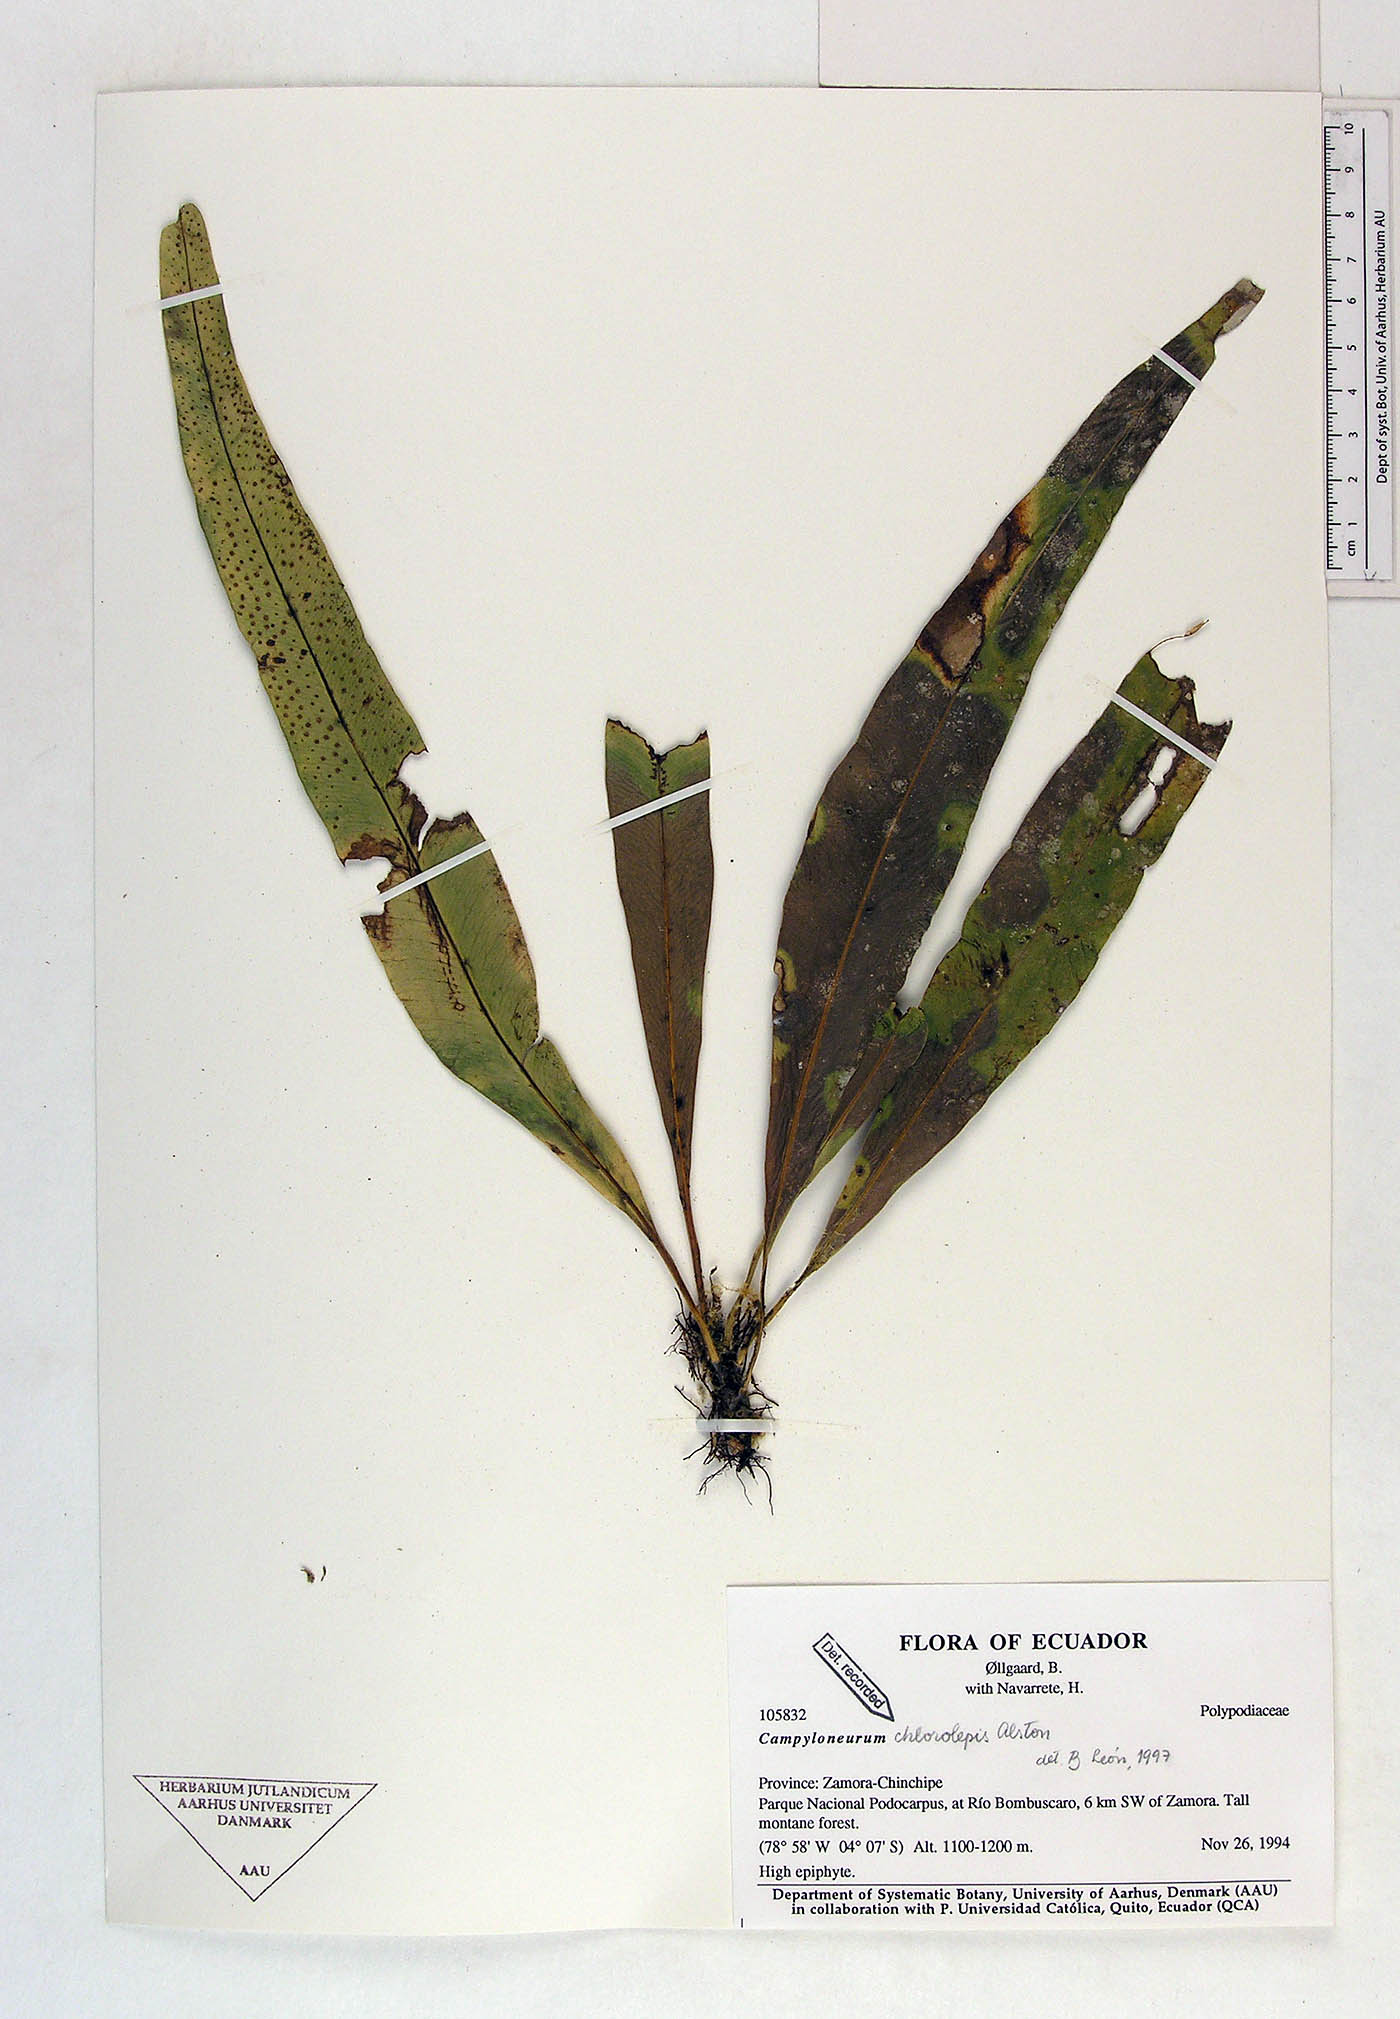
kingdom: Plantae
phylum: Tracheophyta
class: Polypodiopsida
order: Polypodiales
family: Polypodiaceae
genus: Campyloneurum
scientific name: Campyloneurum chlorolepis
